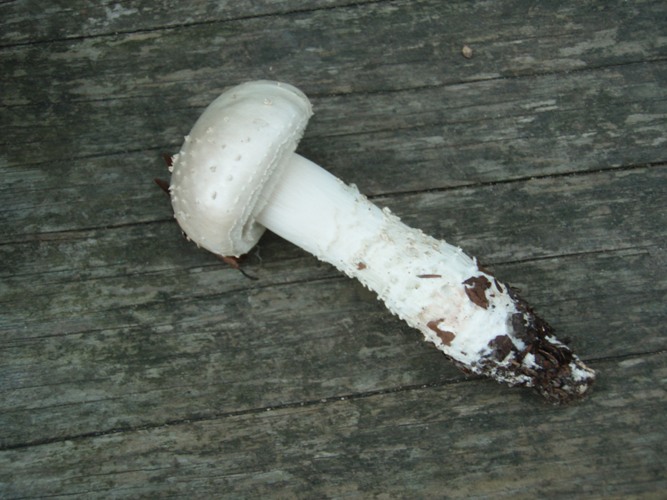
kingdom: Fungi
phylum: Basidiomycota
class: Agaricomycetes
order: Agaricales
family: Amanitaceae
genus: Aspidella
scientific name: Aspidella solitaria
